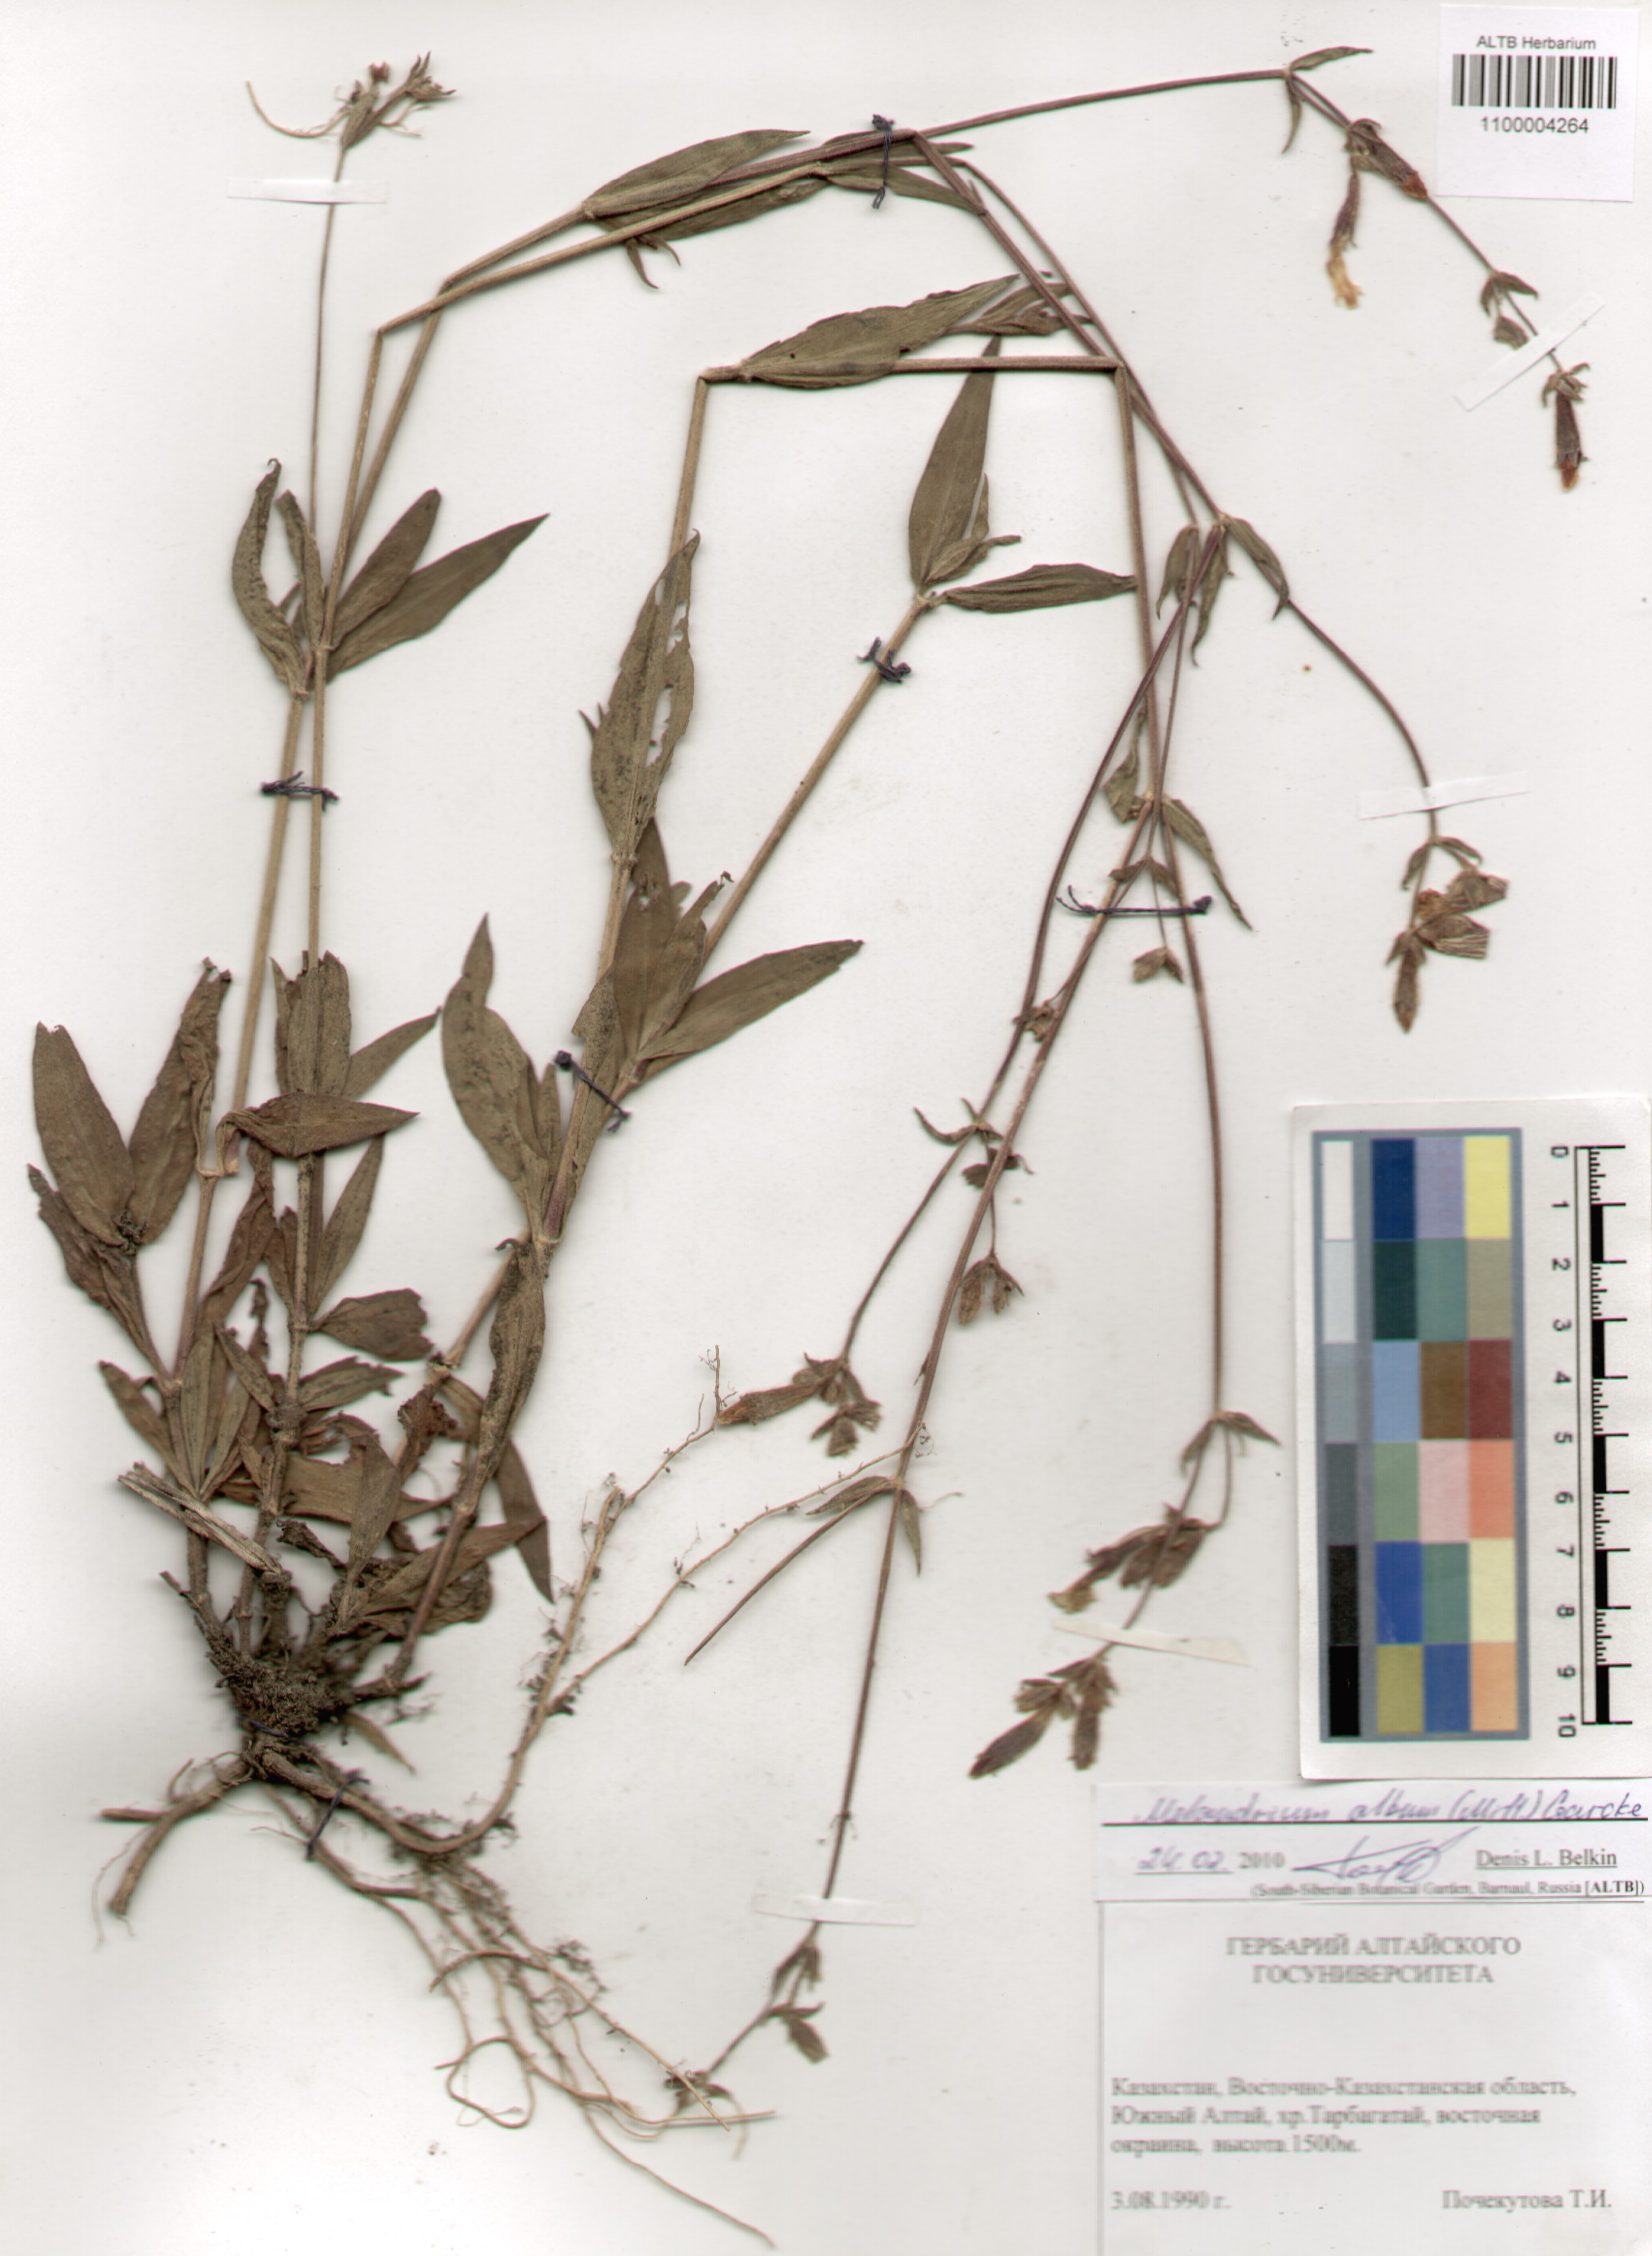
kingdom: Plantae
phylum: Tracheophyta
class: Magnoliopsida
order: Caryophyllales
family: Caryophyllaceae
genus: Silene
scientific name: Silene latifolia
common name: White campion
